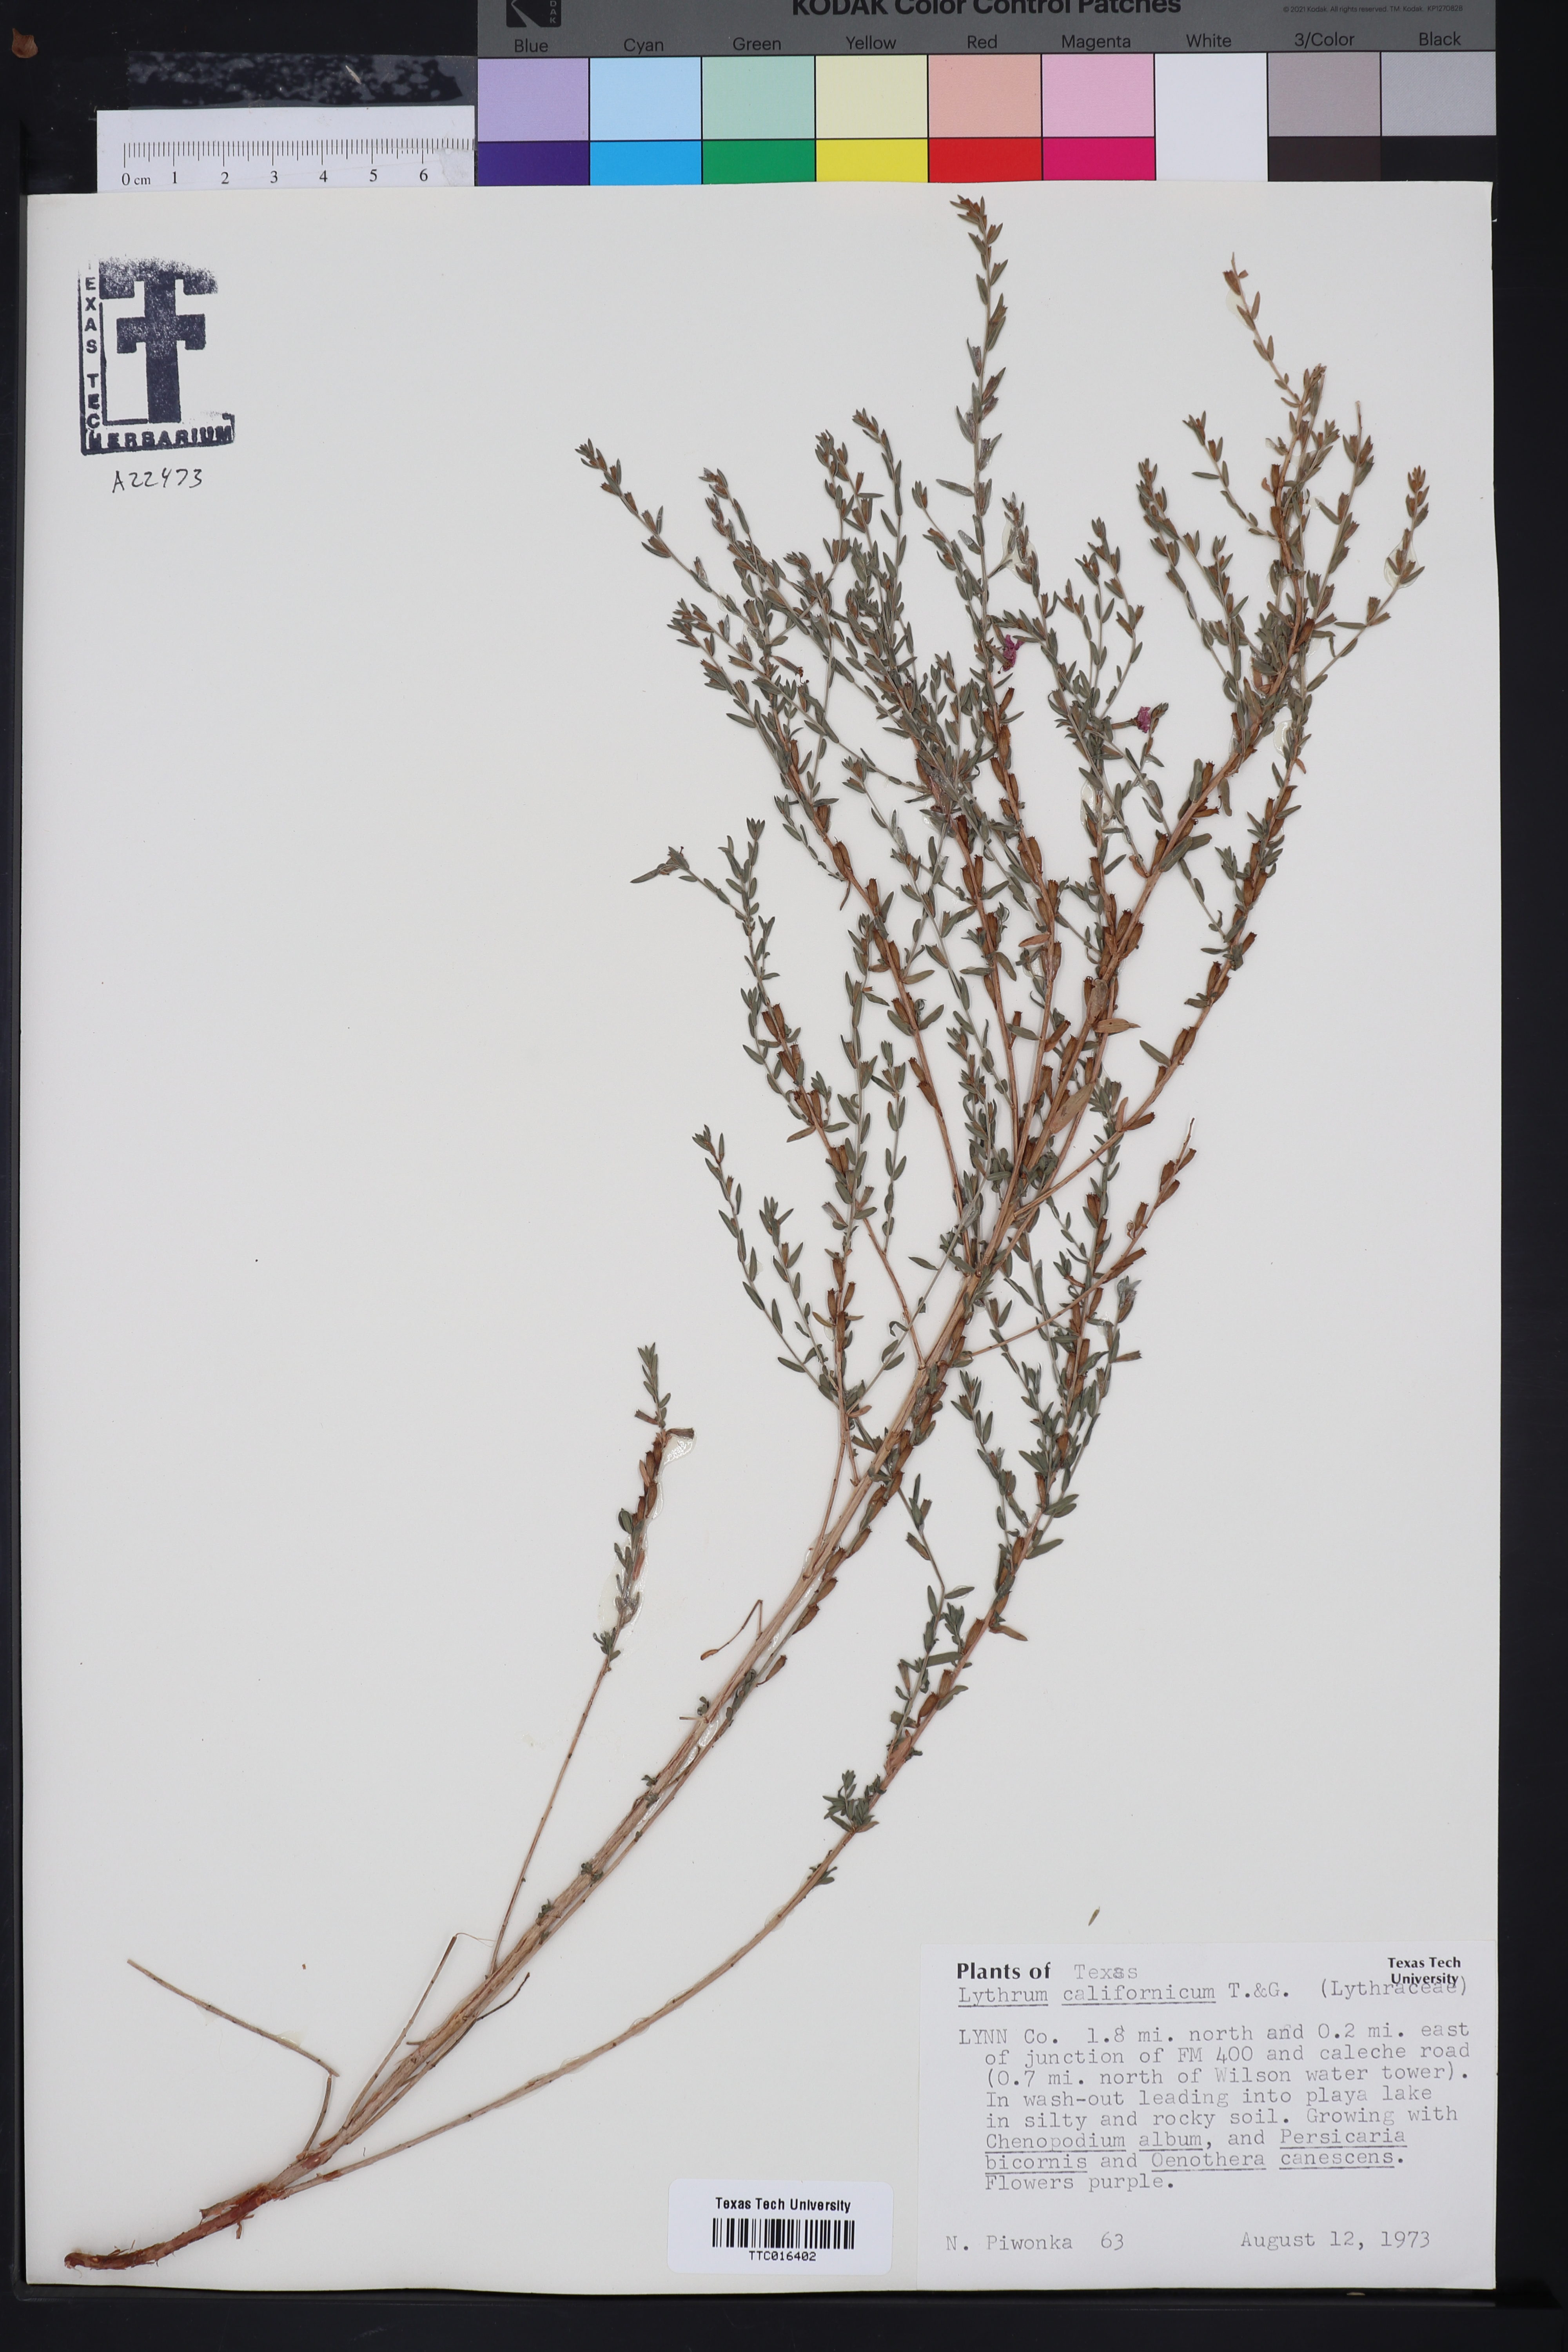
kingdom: Plantae
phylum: Tracheophyta
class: Magnoliopsida
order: Myrtales
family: Lythraceae
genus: Lythrum
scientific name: Lythrum californicum
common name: California loosestrife
